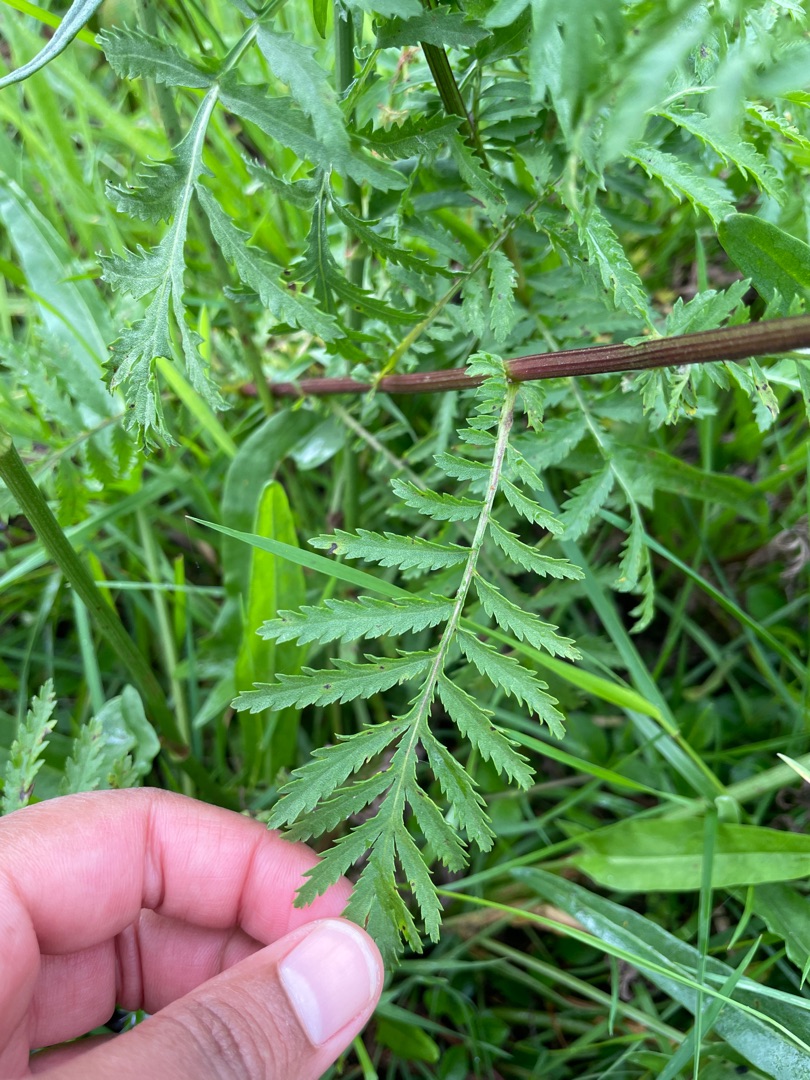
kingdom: Plantae
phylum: Tracheophyta
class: Magnoliopsida
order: Asterales
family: Asteraceae
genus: Tanacetum
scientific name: Tanacetum vulgare
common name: Rejnfan
